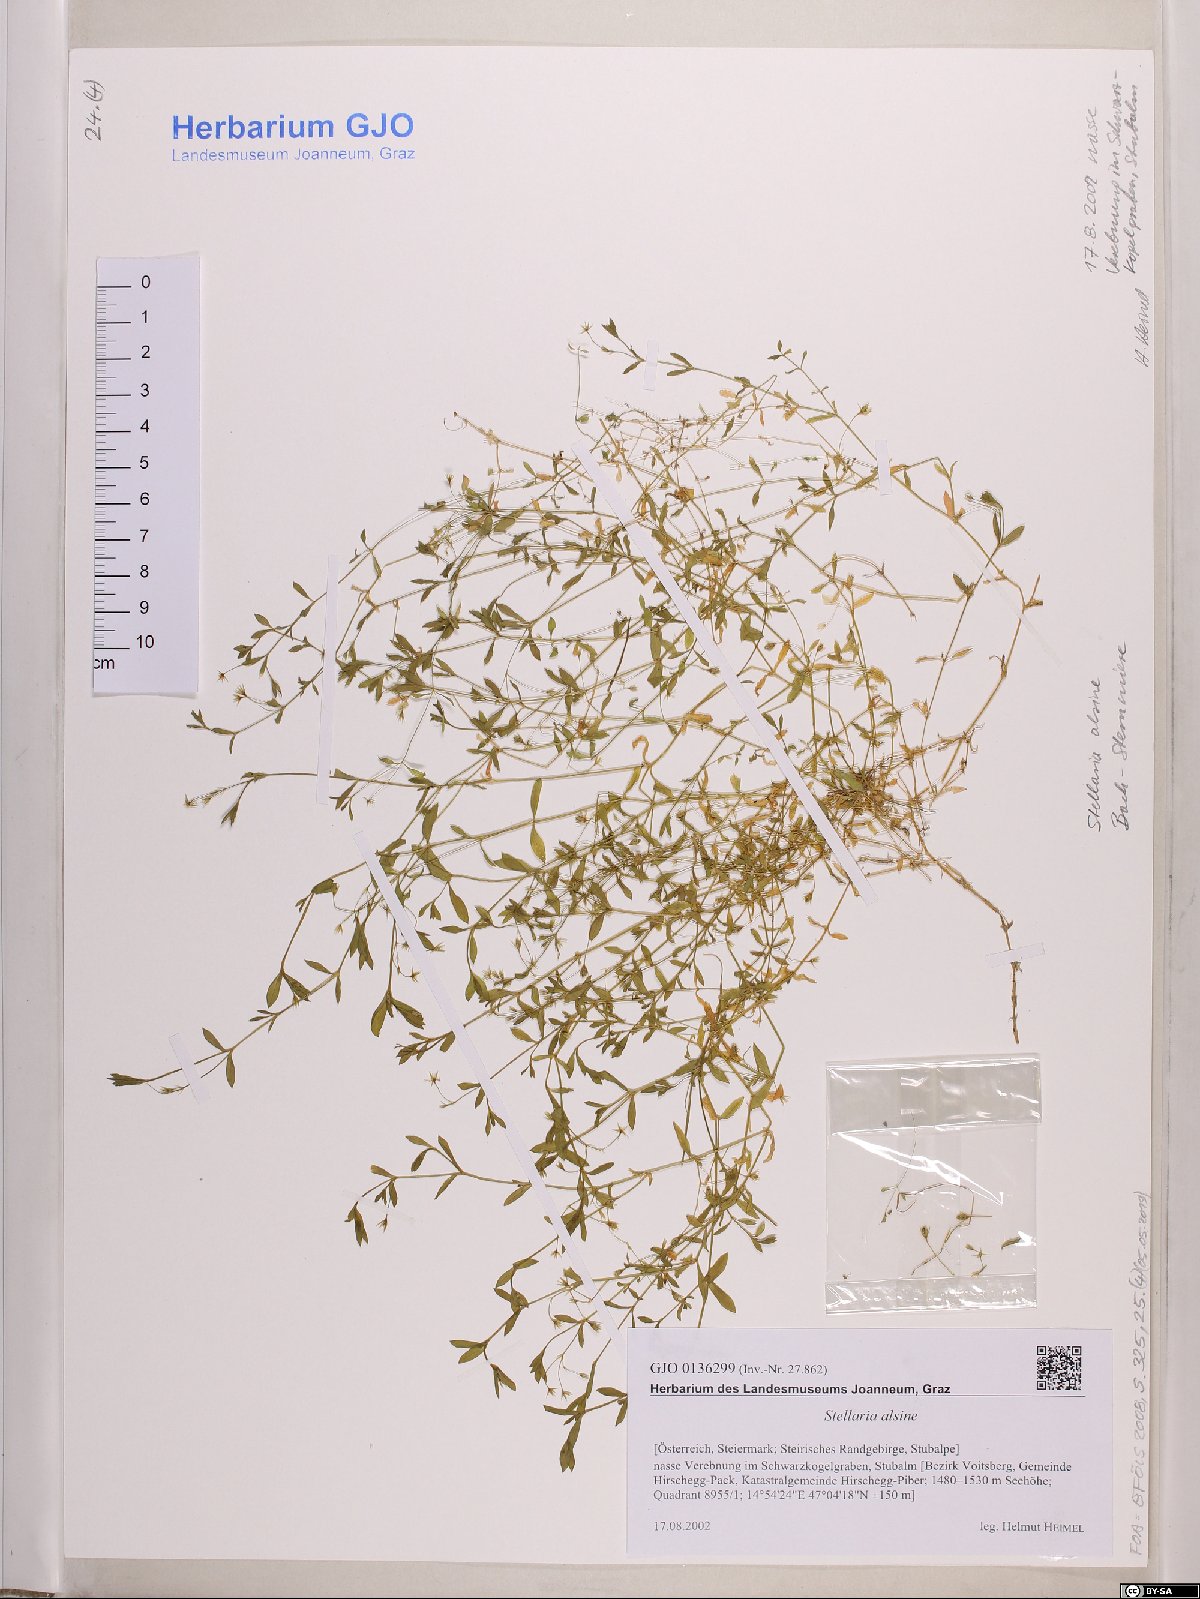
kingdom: Plantae
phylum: Tracheophyta
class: Magnoliopsida
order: Caryophyllales
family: Caryophyllaceae
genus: Stellaria
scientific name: Stellaria alsine
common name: Bog stitchwort
